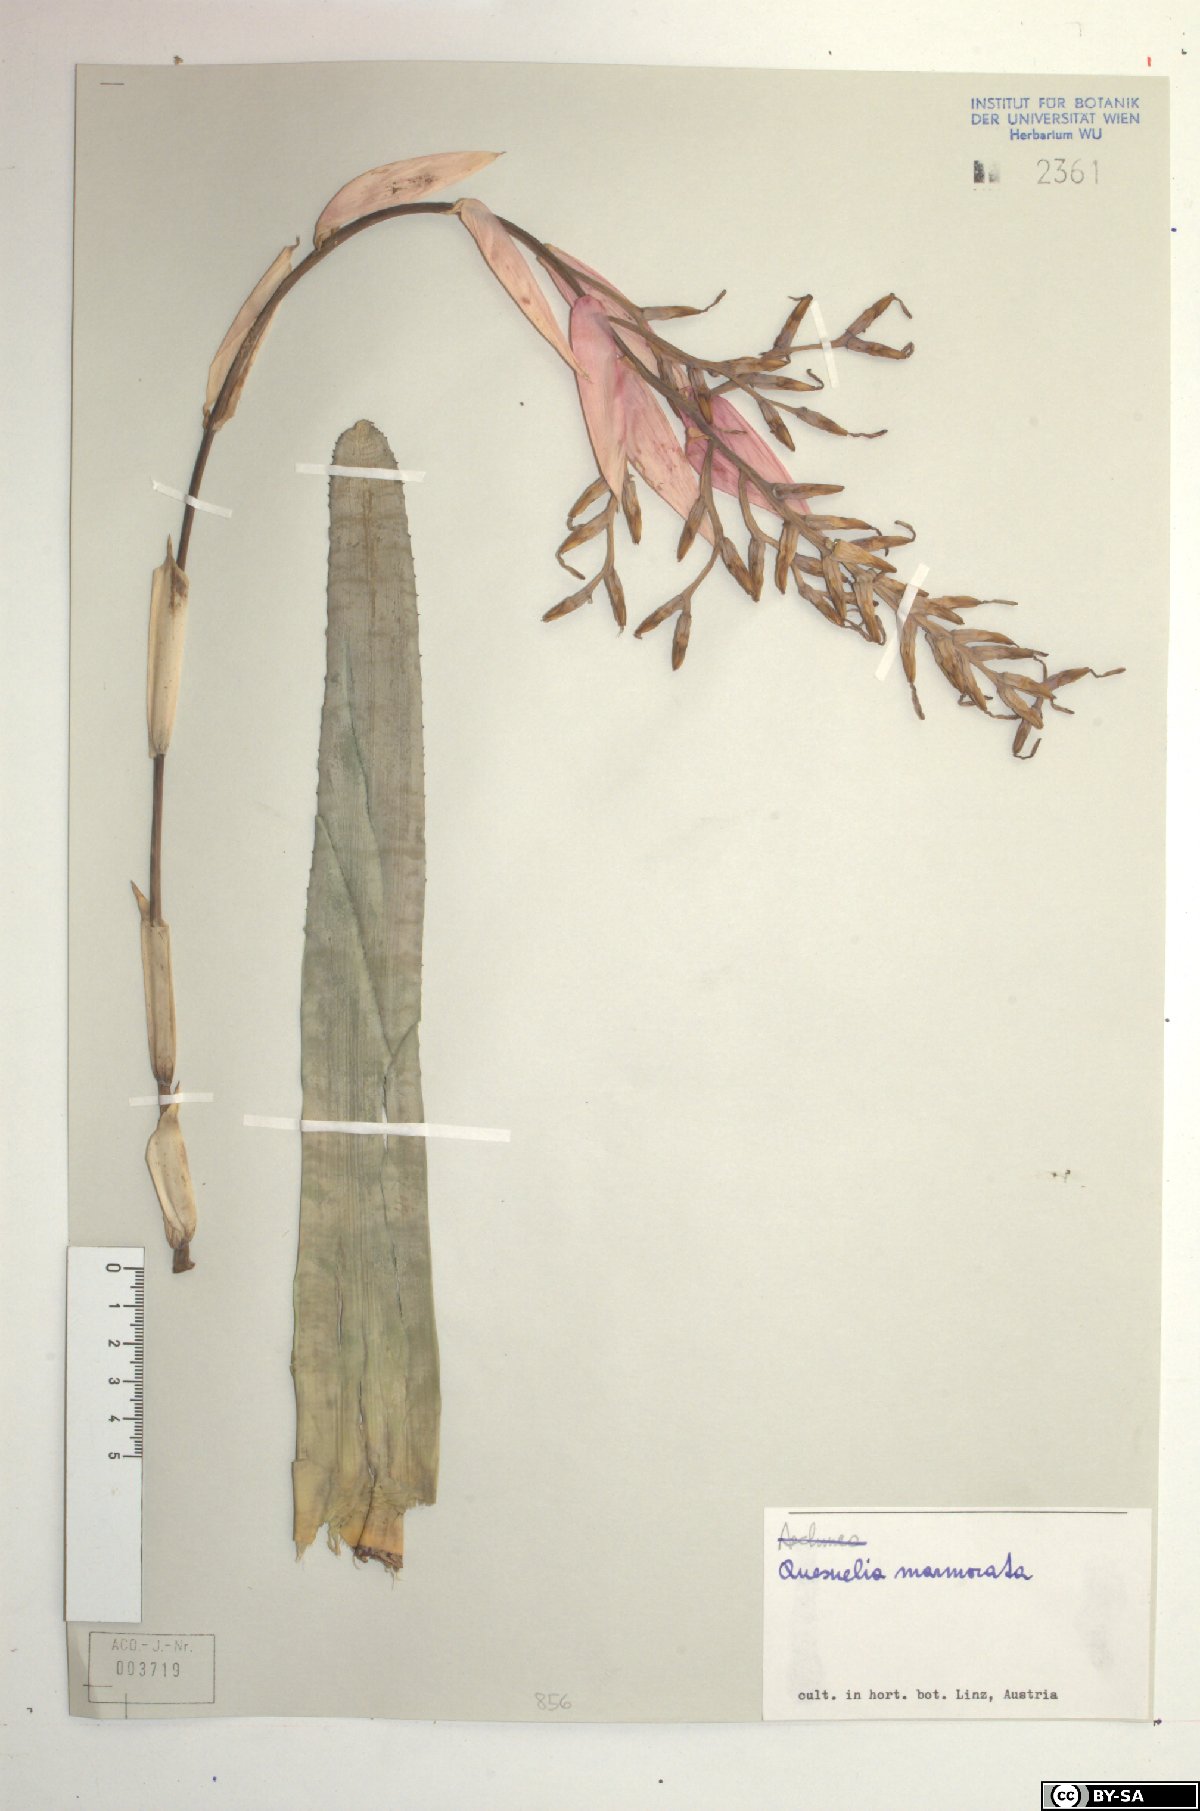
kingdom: Plantae
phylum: Tracheophyta
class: Liliopsida
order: Poales
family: Bromeliaceae
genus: Quesnelia
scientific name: Quesnelia marmorata
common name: Grecian urnplant
